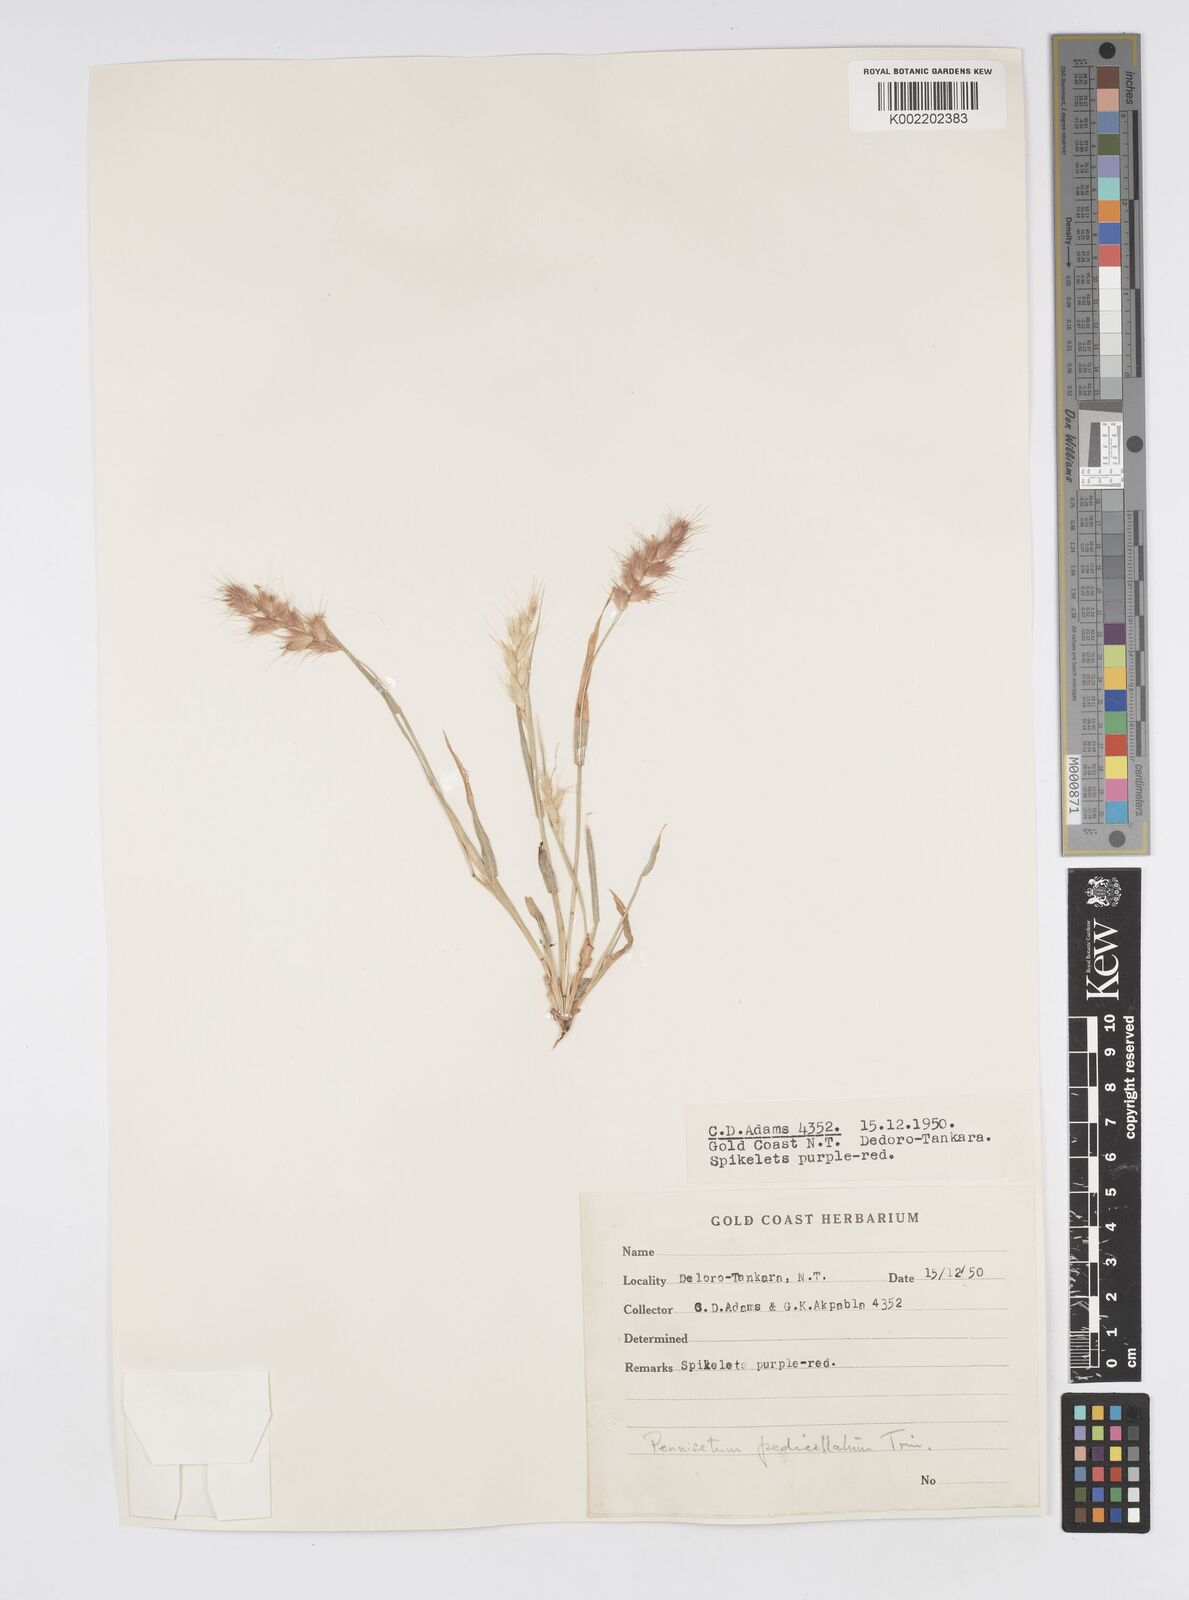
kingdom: Plantae
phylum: Tracheophyta
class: Liliopsida
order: Poales
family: Poaceae
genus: Cenchrus
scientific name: Cenchrus pedicellatus
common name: Hairy fountain grass
